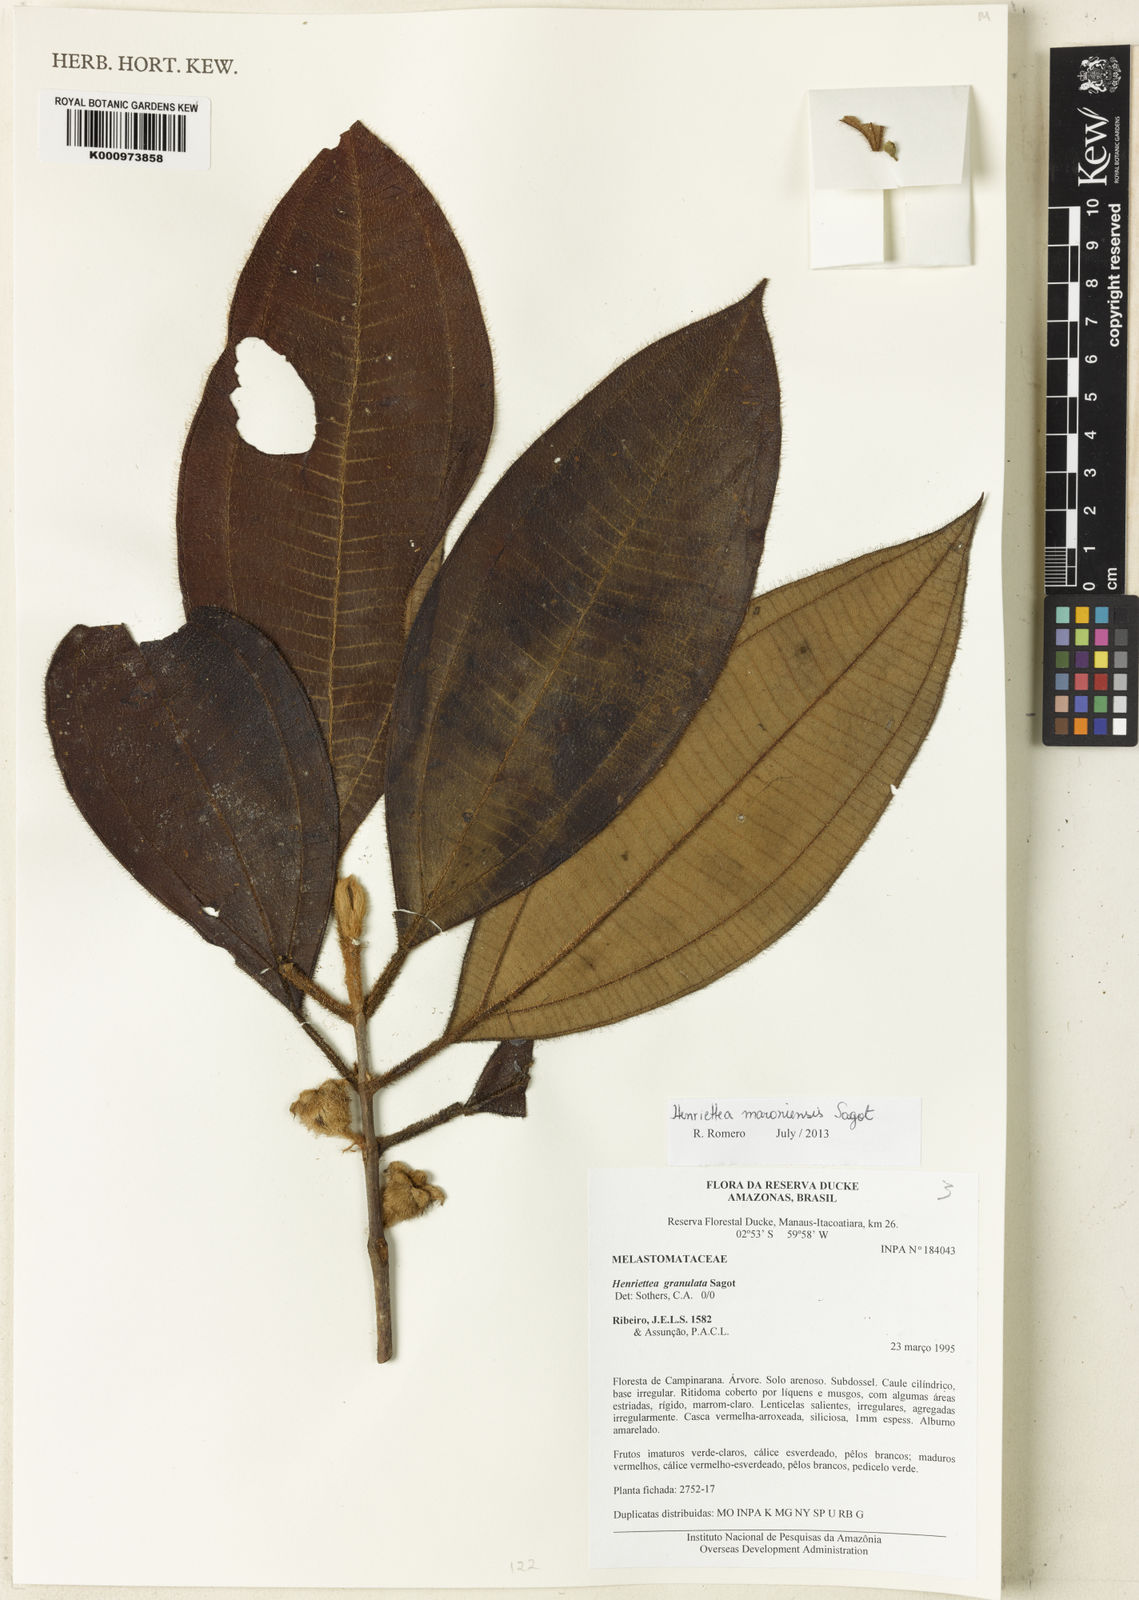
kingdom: Plantae
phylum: Tracheophyta
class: Magnoliopsida
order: Myrtales
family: Melastomataceae
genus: Henriettea
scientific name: Henriettea maroniensis
